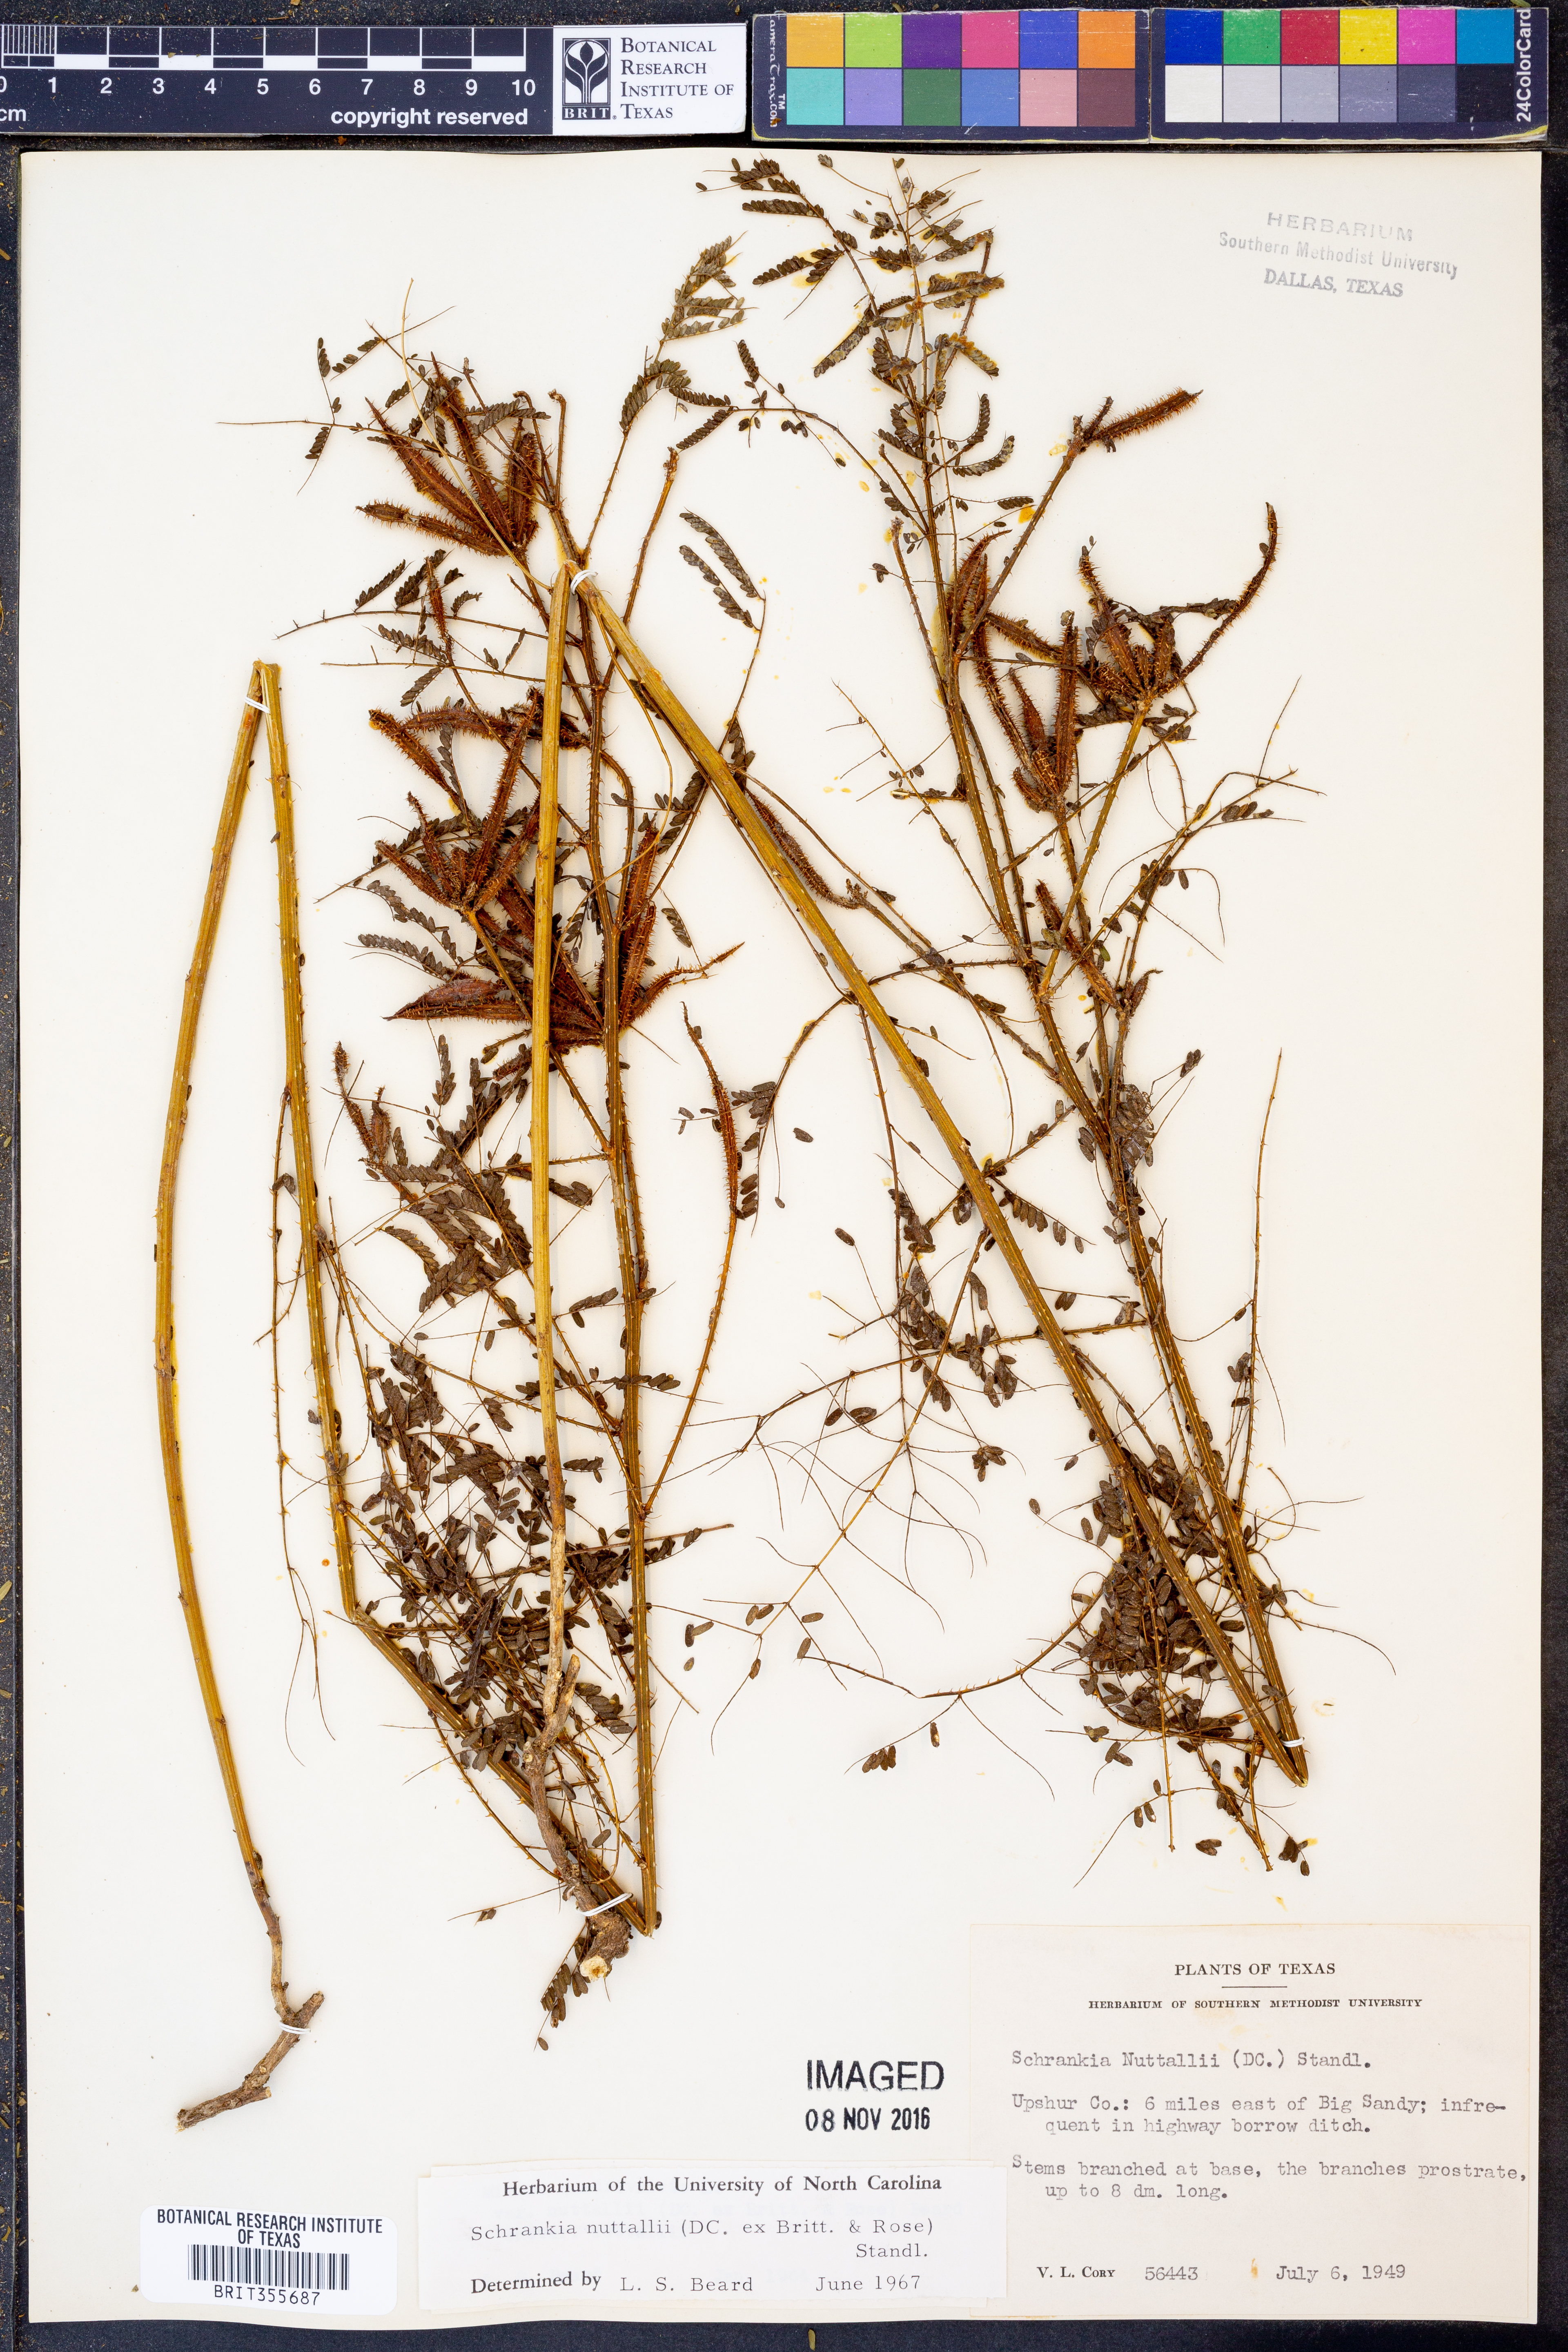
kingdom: Plantae
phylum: Tracheophyta
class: Magnoliopsida
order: Fabales
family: Fabaceae
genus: Mimosa
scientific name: Mimosa quadrivalvis
